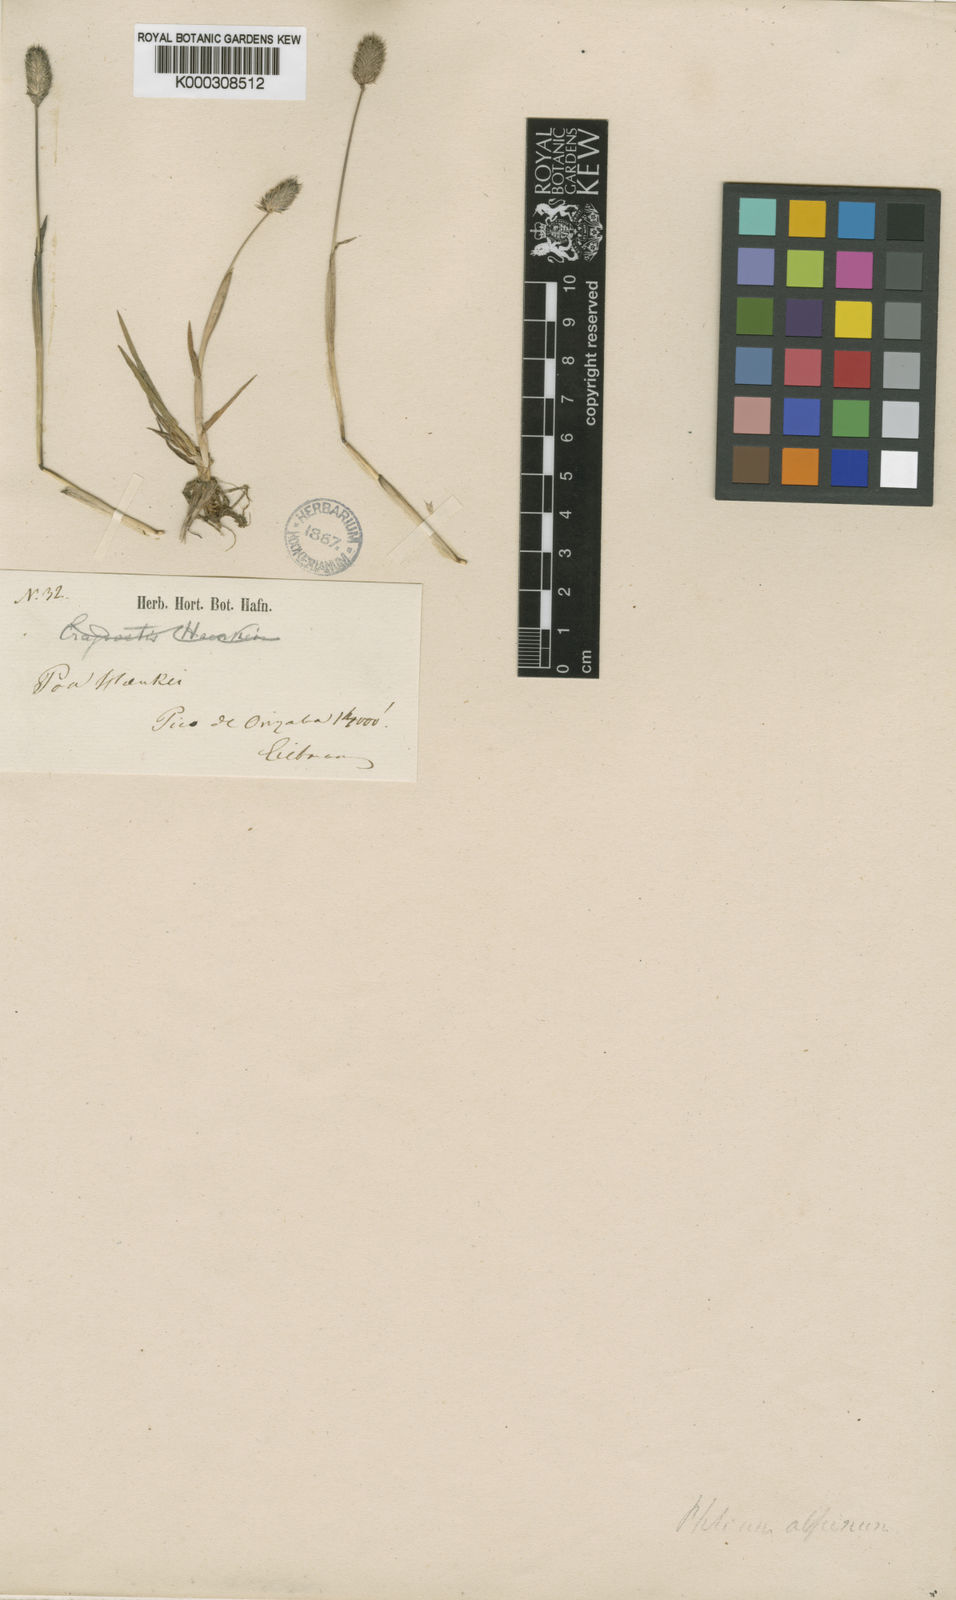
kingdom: Plantae
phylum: Tracheophyta
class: Liliopsida
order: Poales
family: Poaceae
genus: Phleum
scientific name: Phleum alpinum
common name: Alpine cat's-tail
